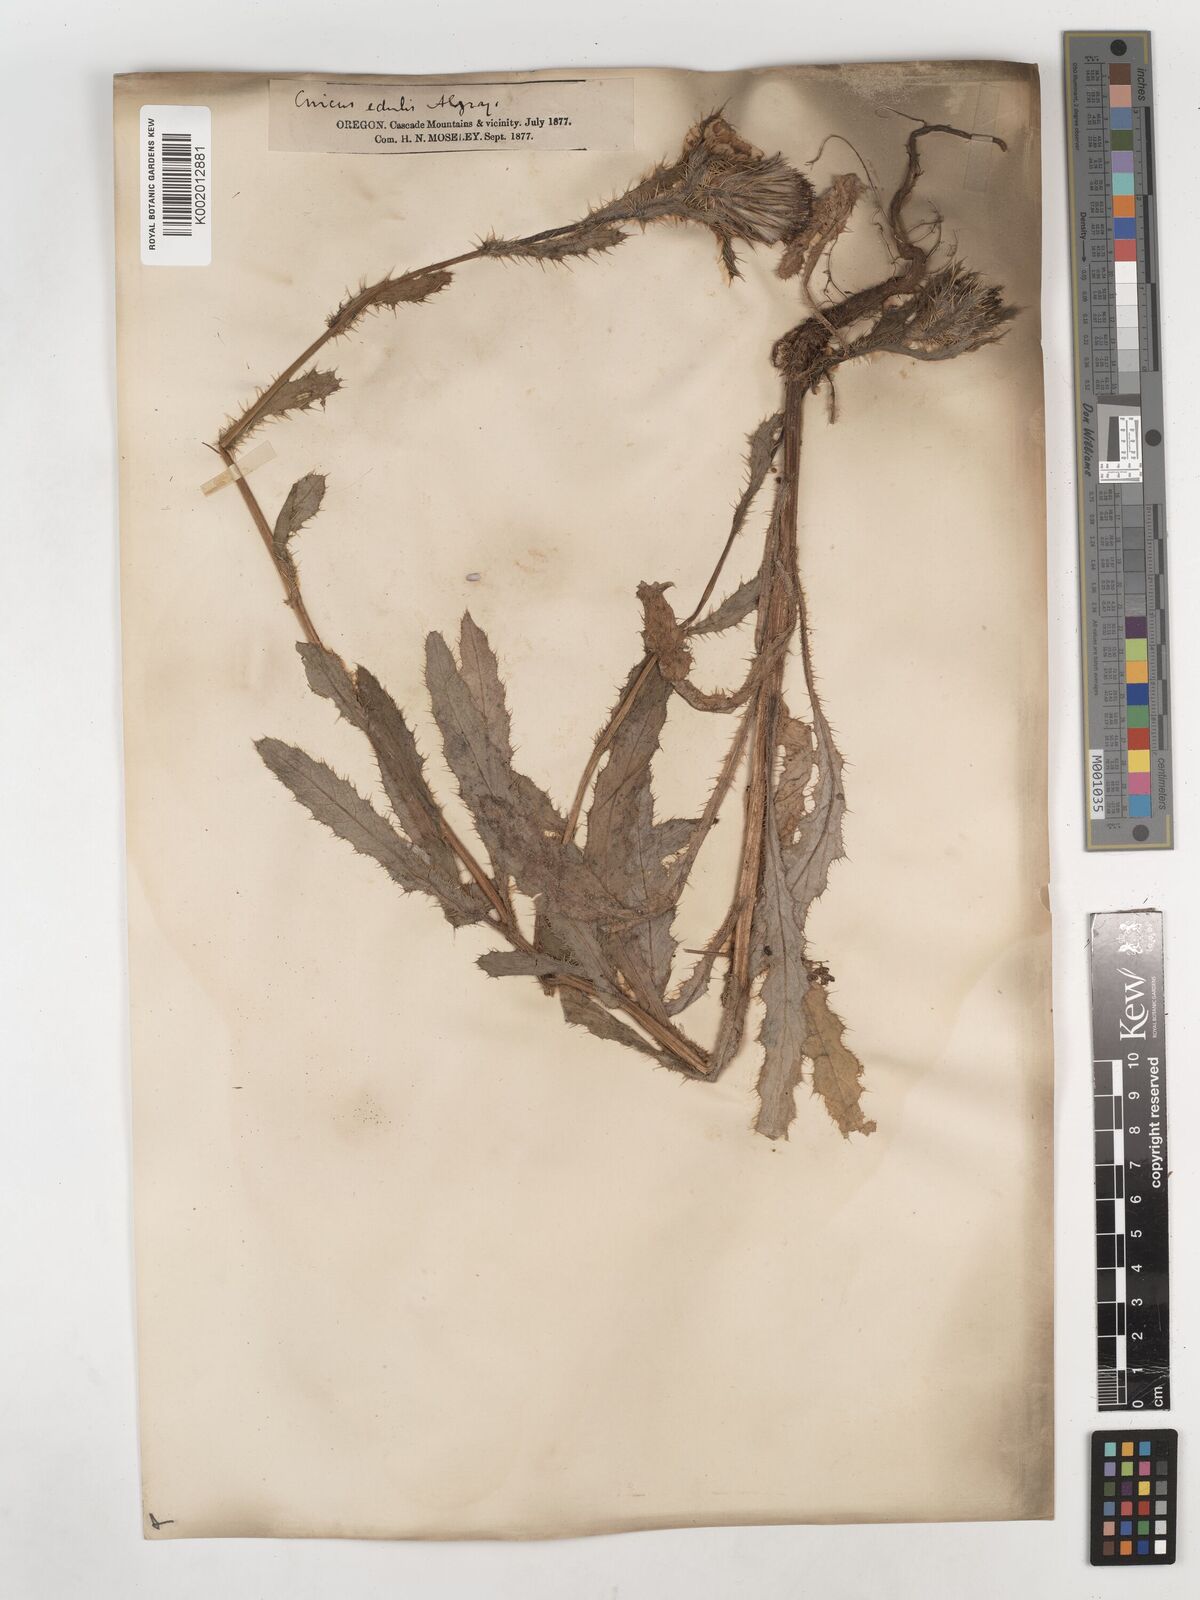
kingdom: Plantae
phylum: Tracheophyta
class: Magnoliopsida
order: Asterales
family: Asteraceae
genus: Cirsium
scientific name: Cirsium edule
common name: Indian thistle
